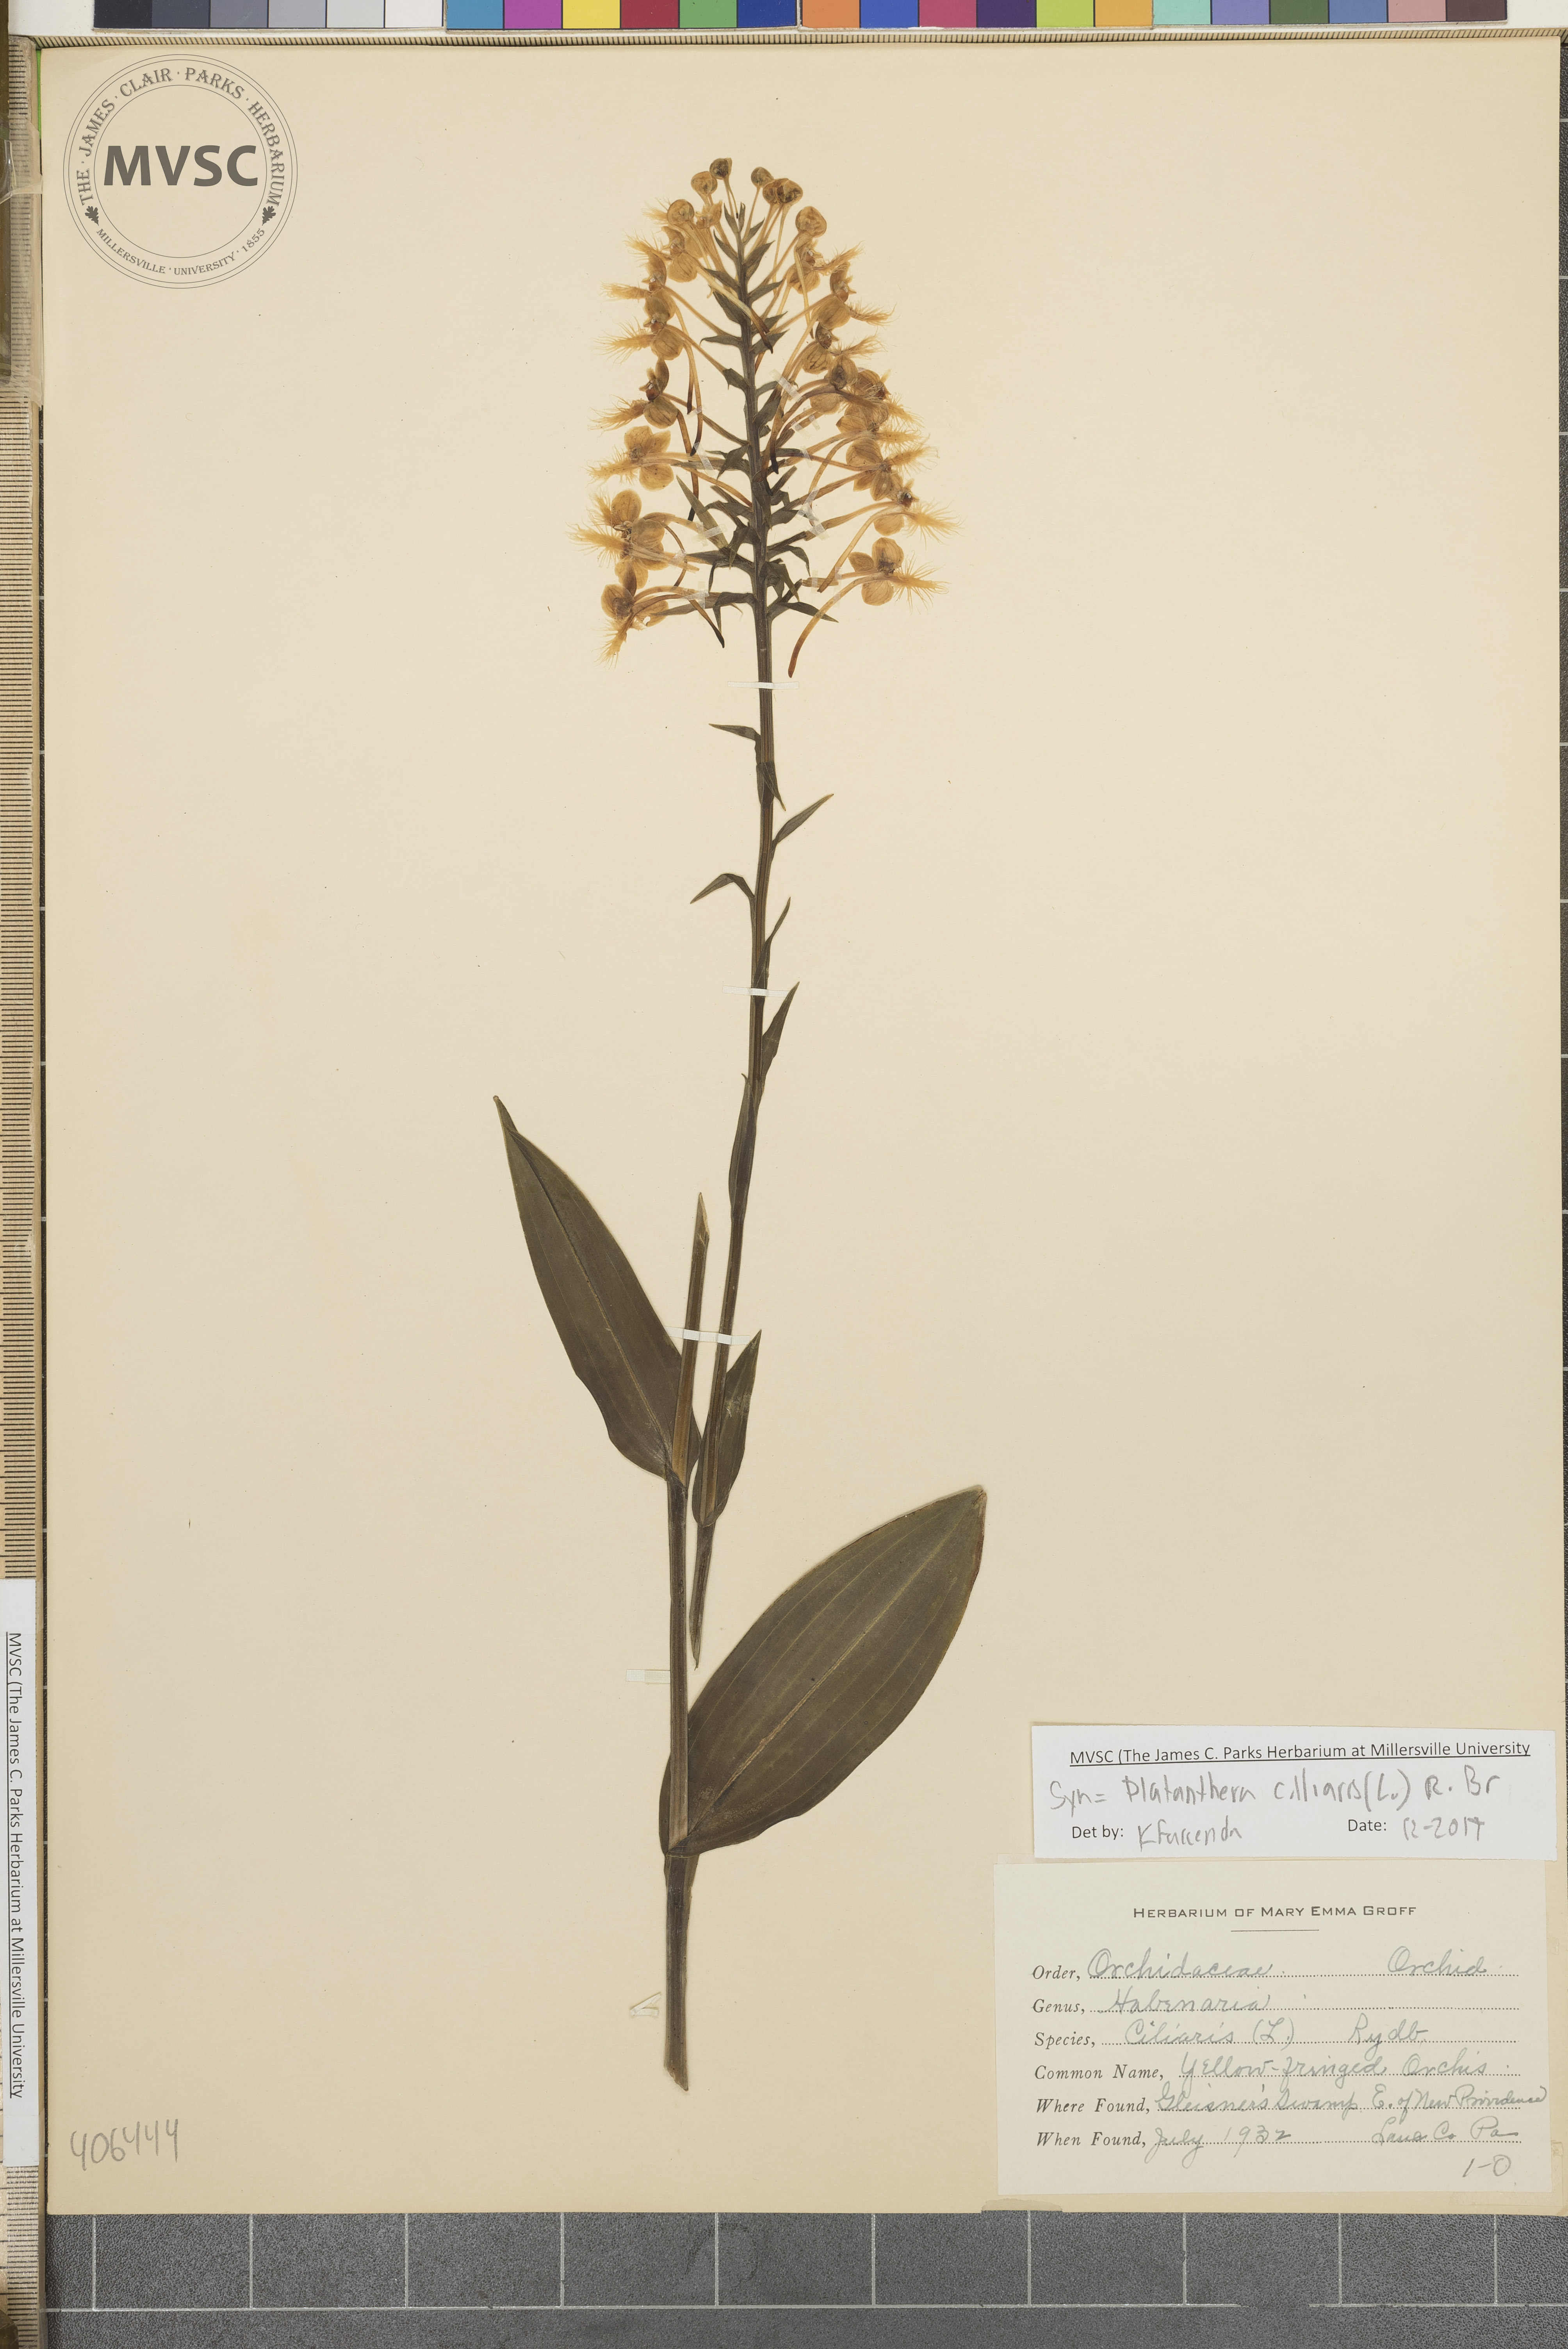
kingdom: Plantae
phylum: Tracheophyta
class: Liliopsida
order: Asparagales
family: Orchidaceae
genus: Platanthera
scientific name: Platanthera ciliaris
